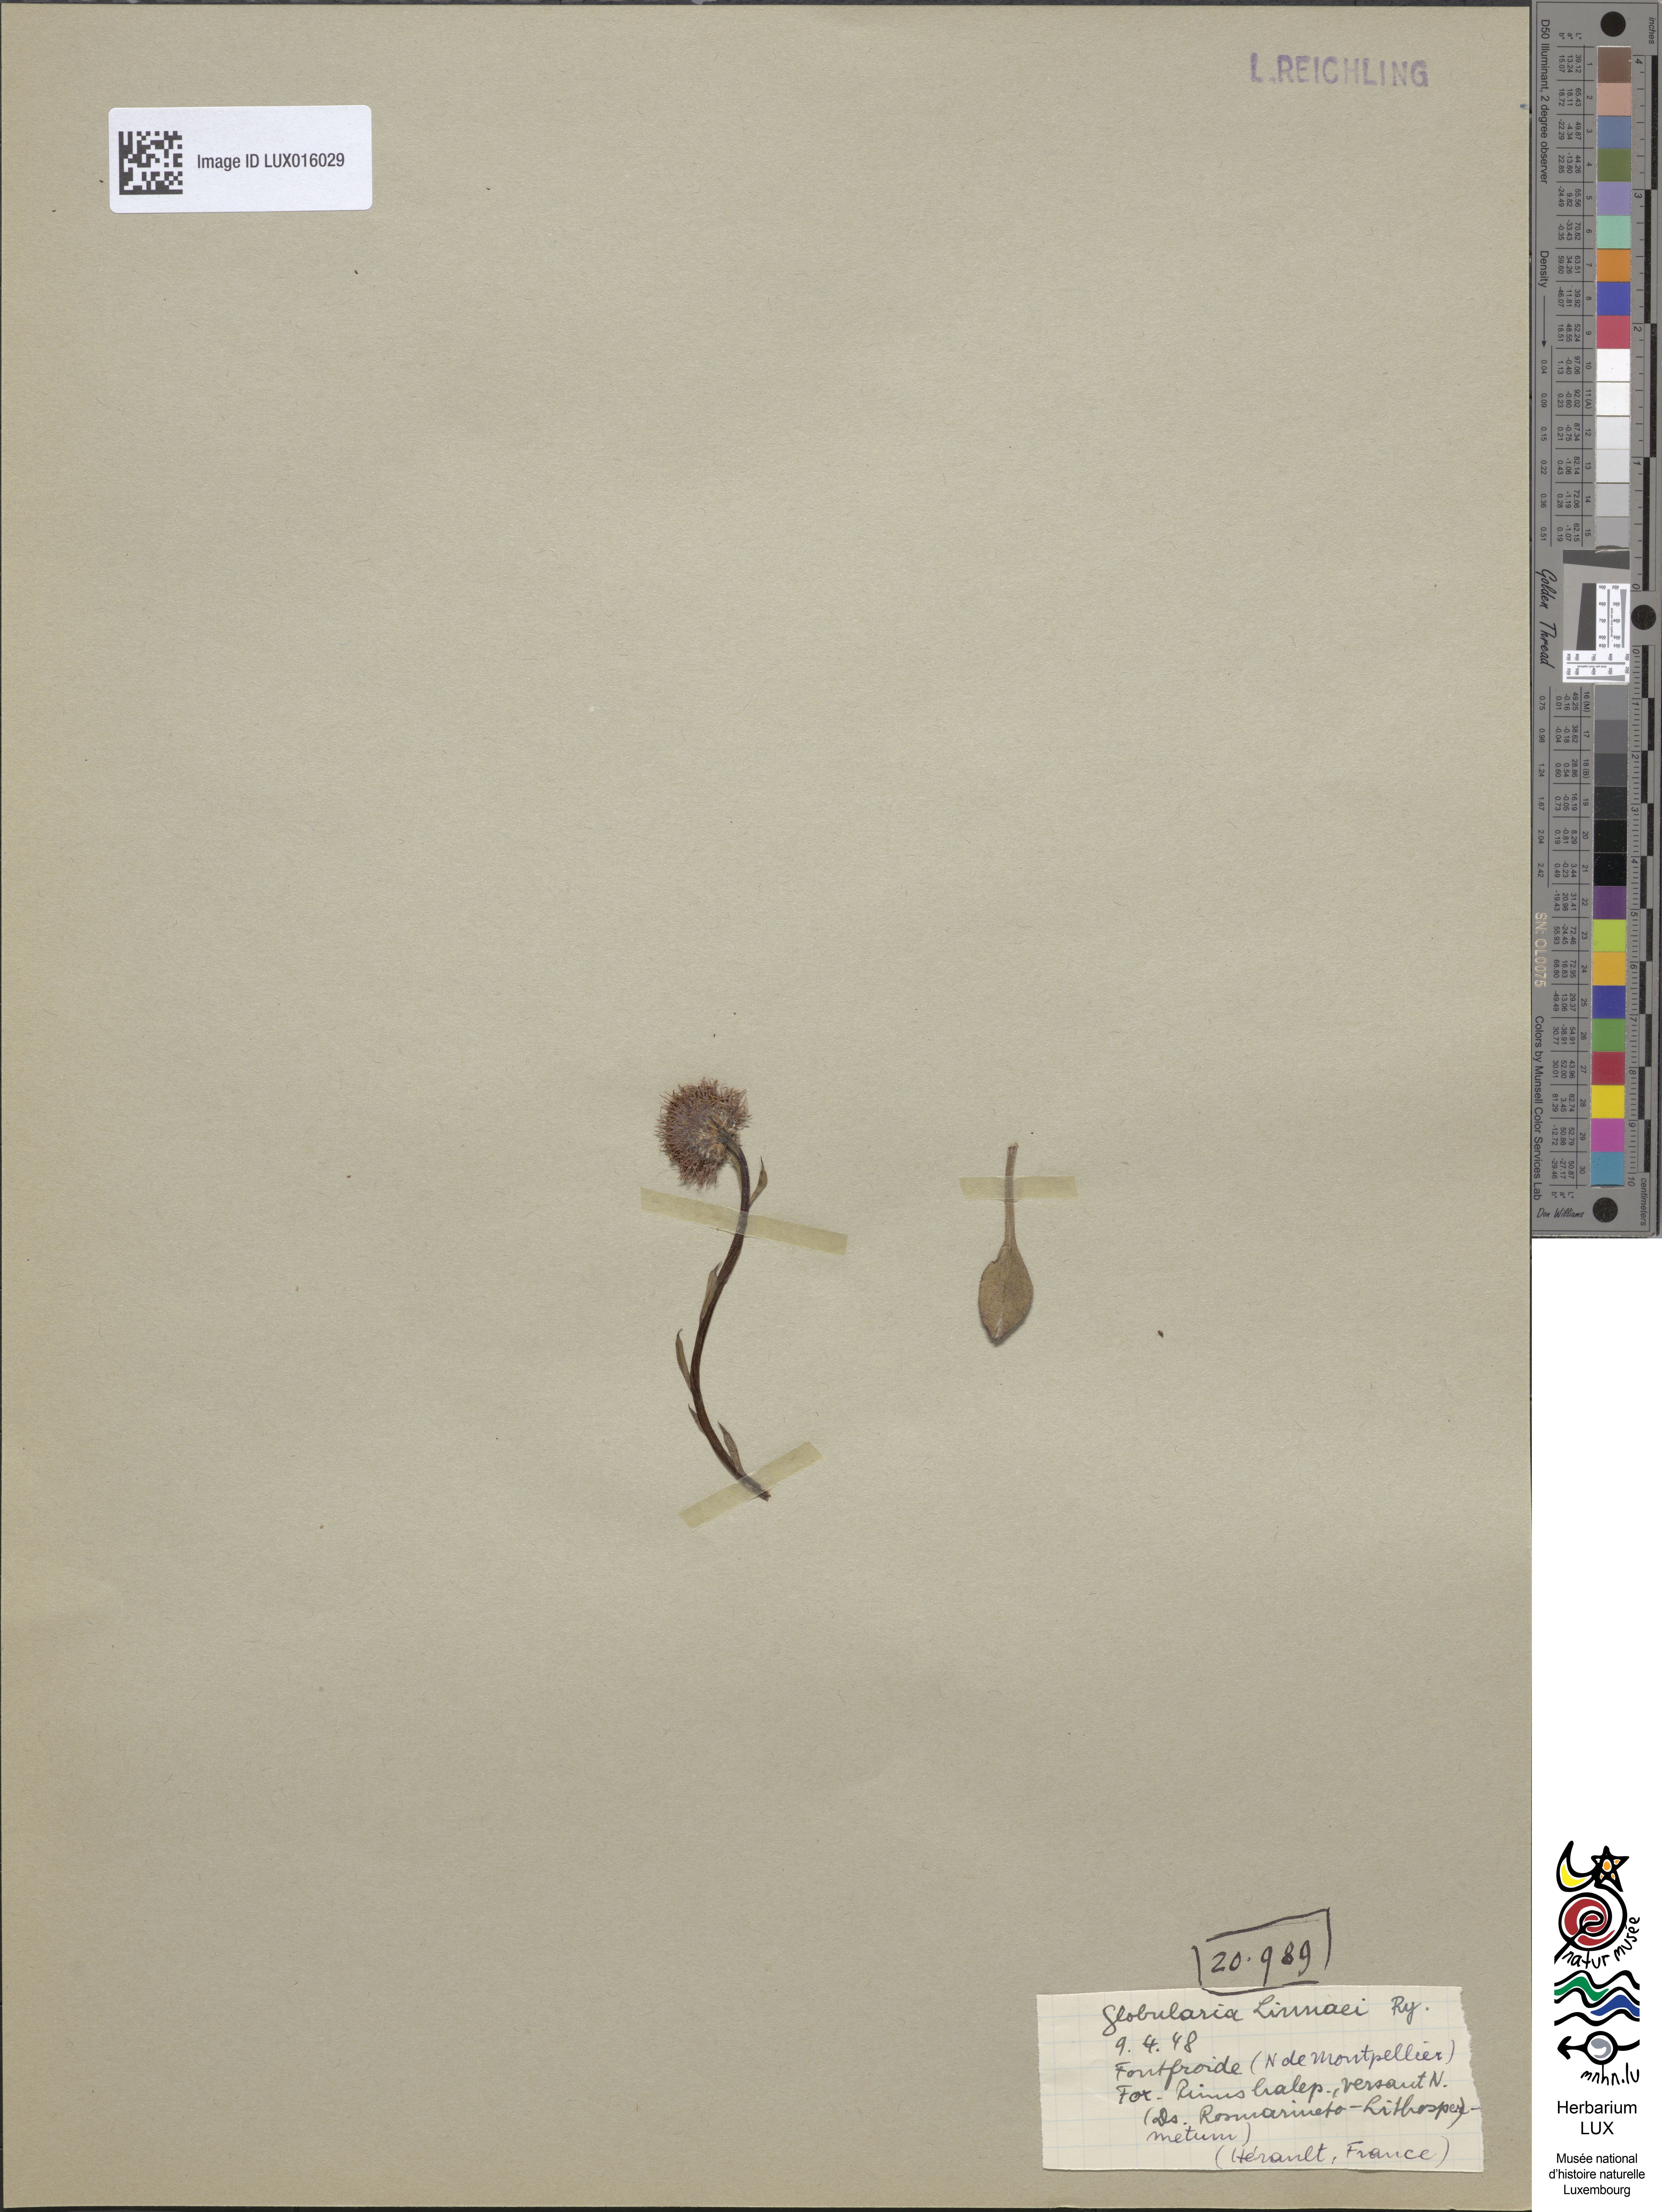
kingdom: Plantae
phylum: Tracheophyta
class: Magnoliopsida
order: Lamiales
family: Plantaginaceae
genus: Globularia
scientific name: Globularia vulgaris
